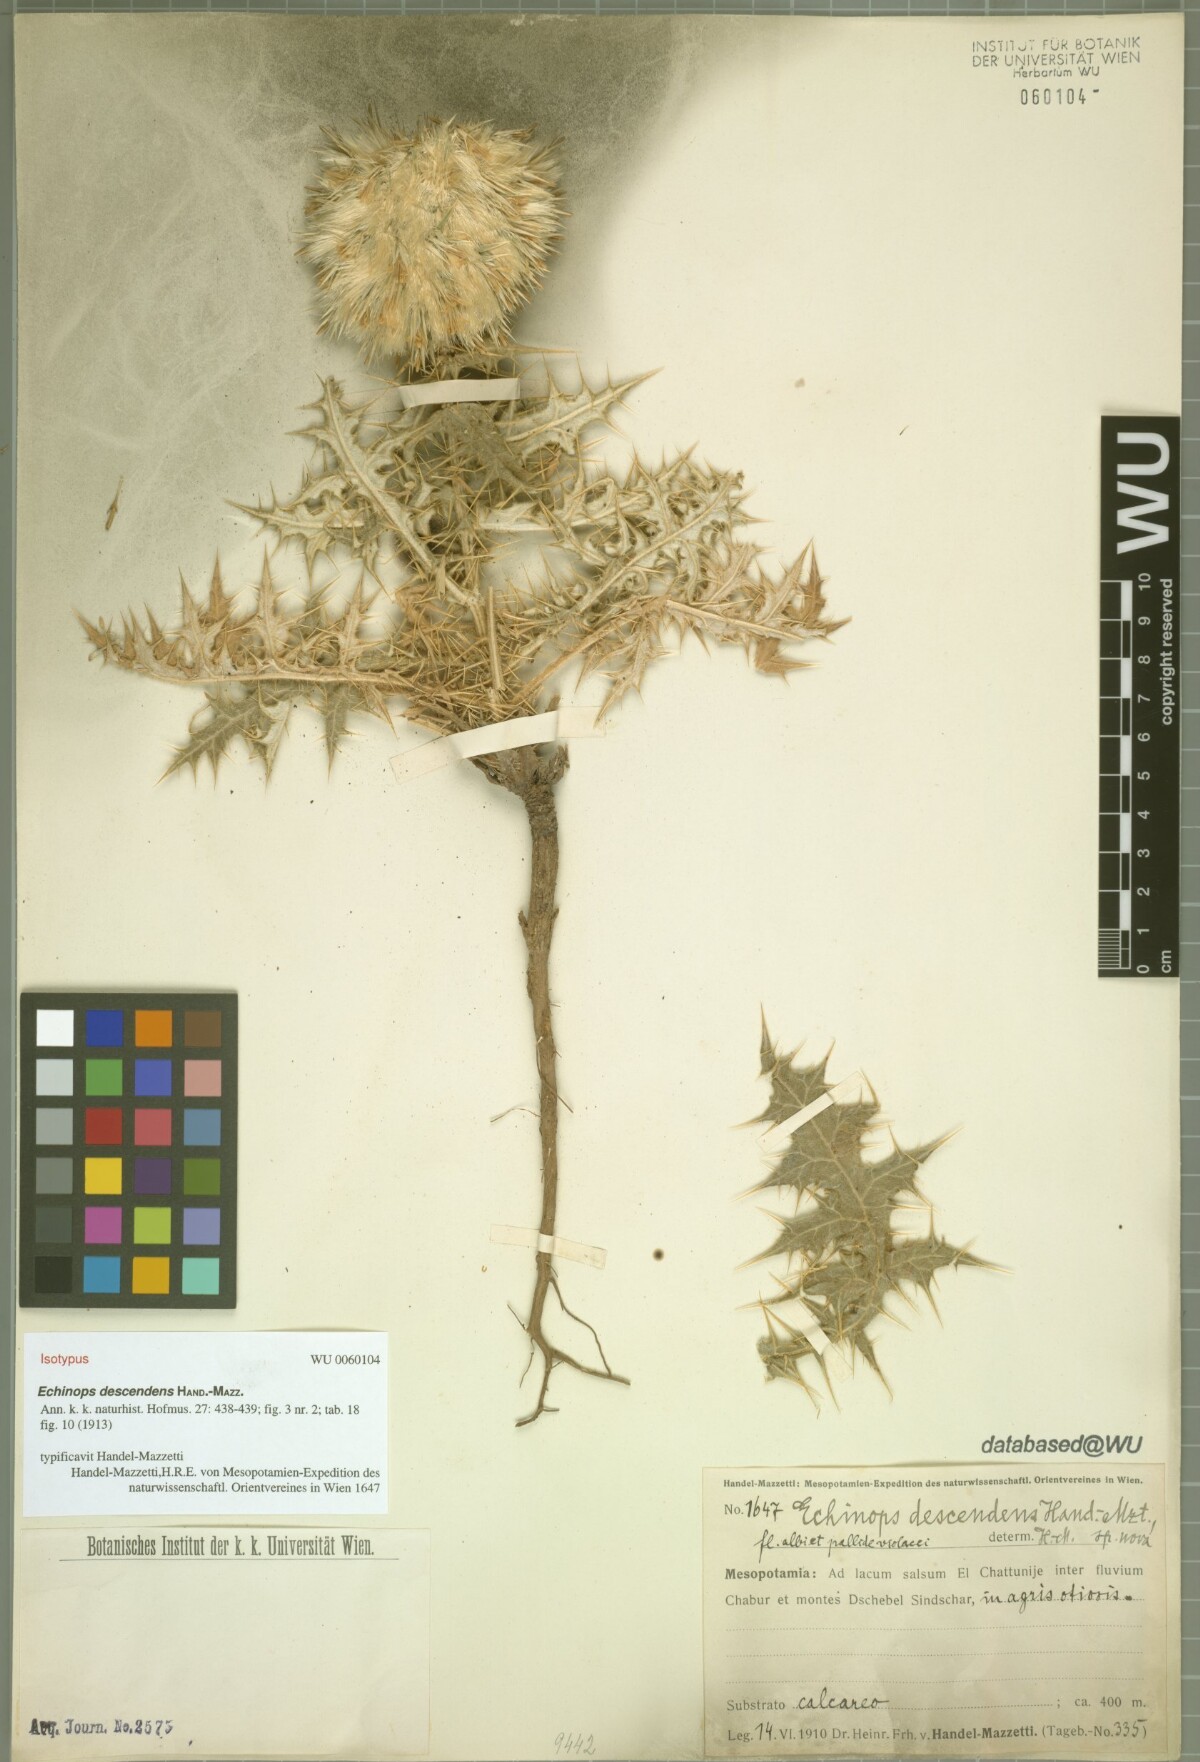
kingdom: Plantae
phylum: Tracheophyta
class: Magnoliopsida
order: Asterales
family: Asteraceae
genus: Echinops
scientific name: Echinops descendens
